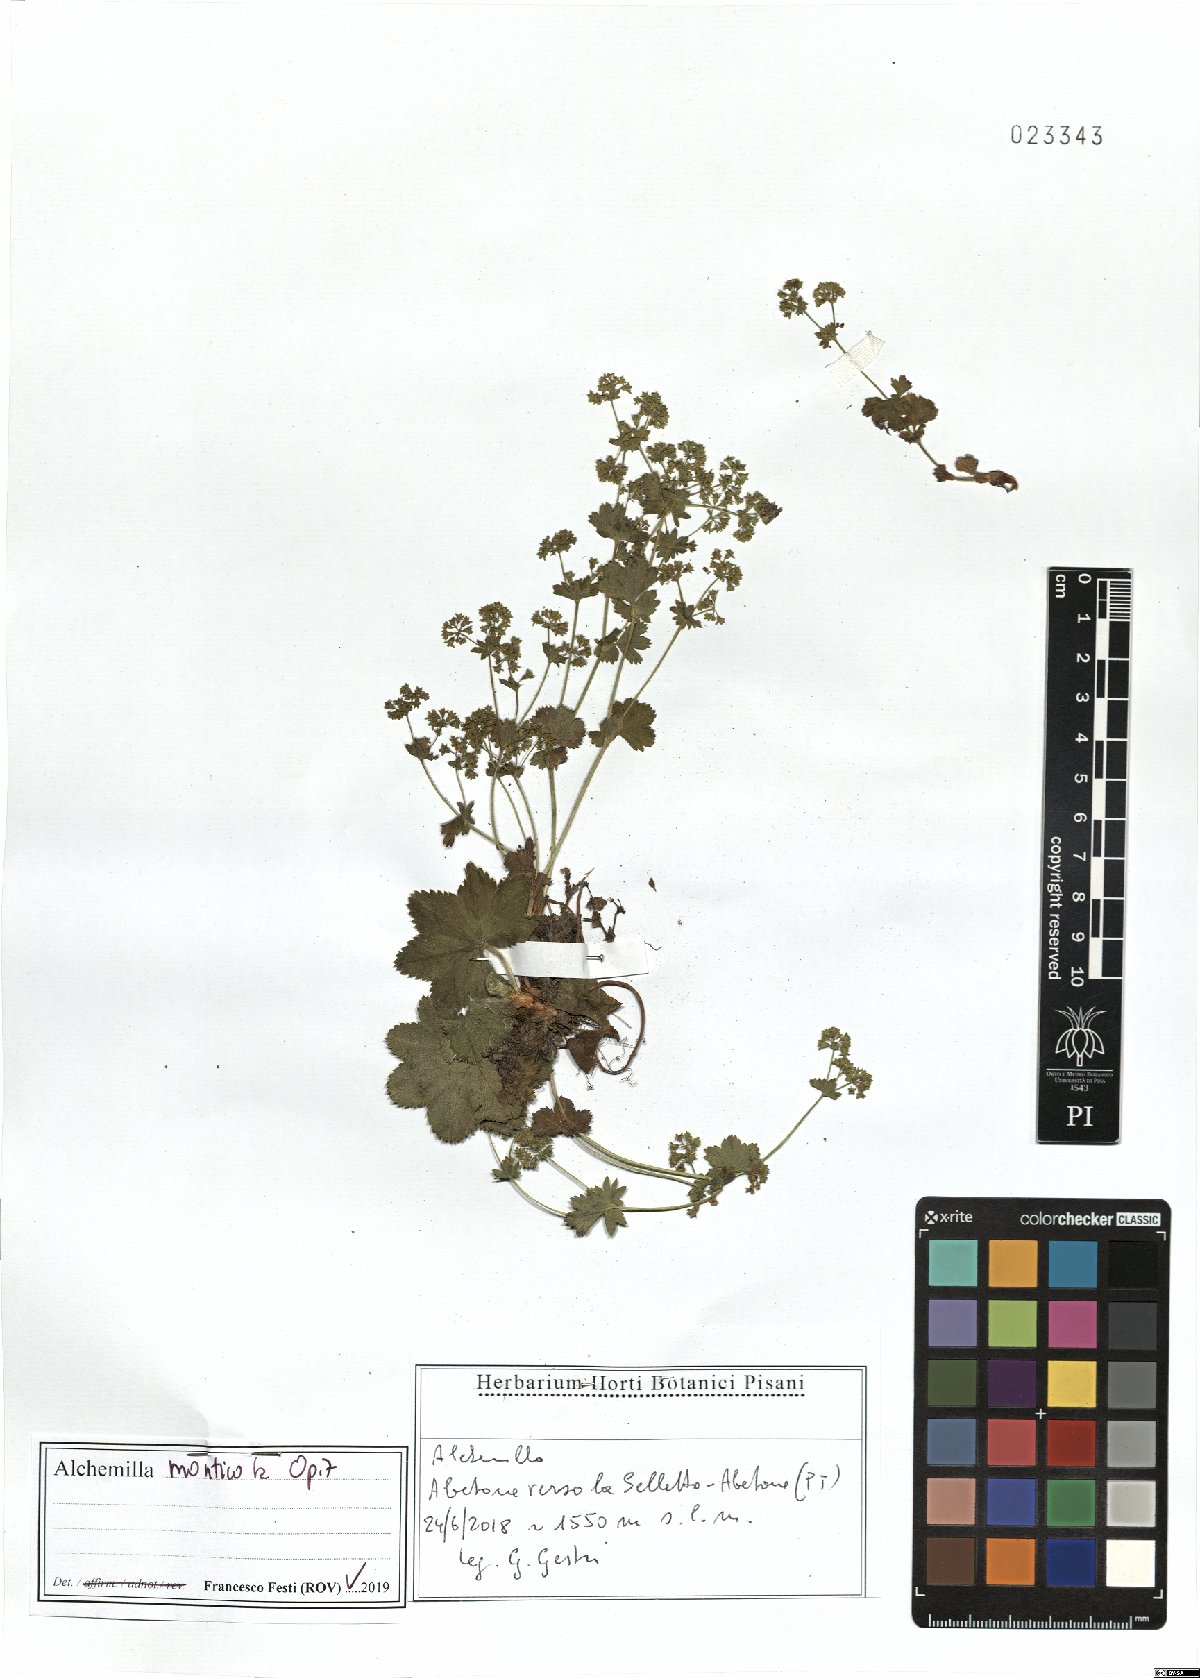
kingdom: Plantae
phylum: Tracheophyta
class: Magnoliopsida
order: Rosales
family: Rosaceae
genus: Alchemilla
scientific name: Alchemilla monticola
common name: Hairy lady's mantle
